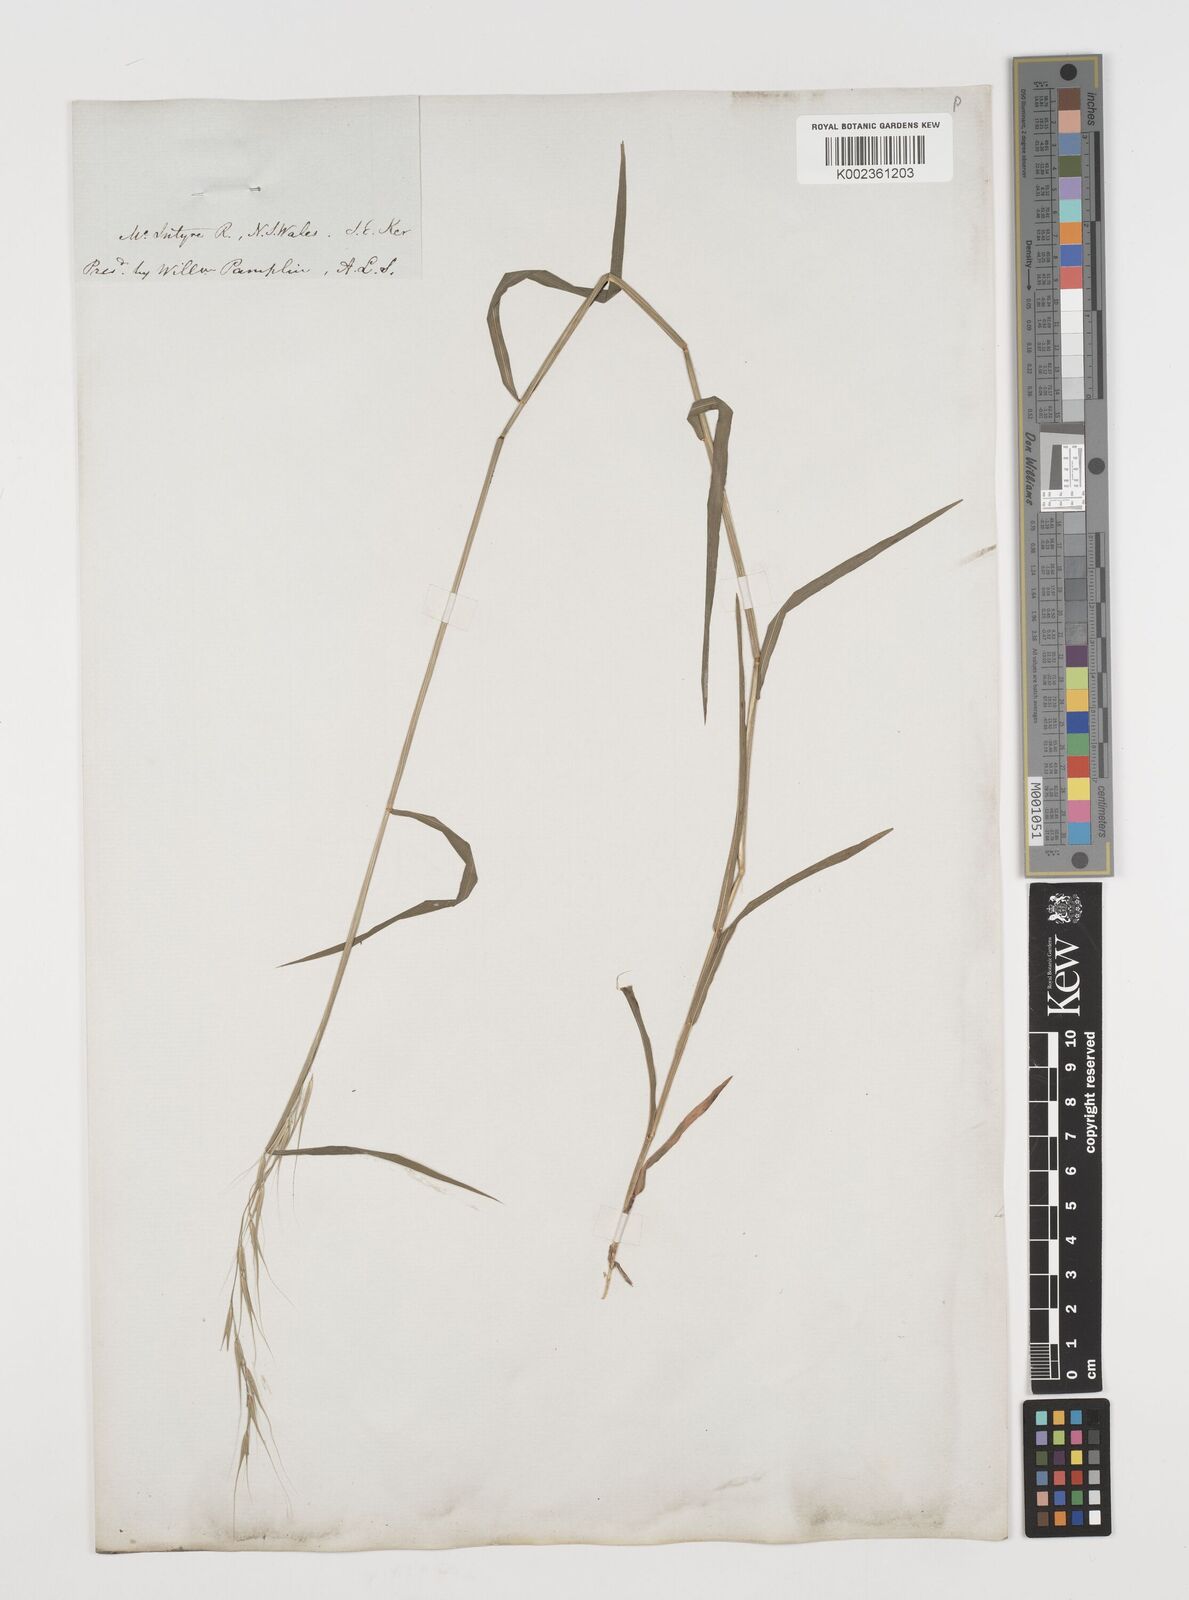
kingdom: Plantae
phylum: Tracheophyta
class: Liliopsida
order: Poales
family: Poaceae
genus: Microlaena
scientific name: Microlaena stipoides
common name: Meadow ricegrass
